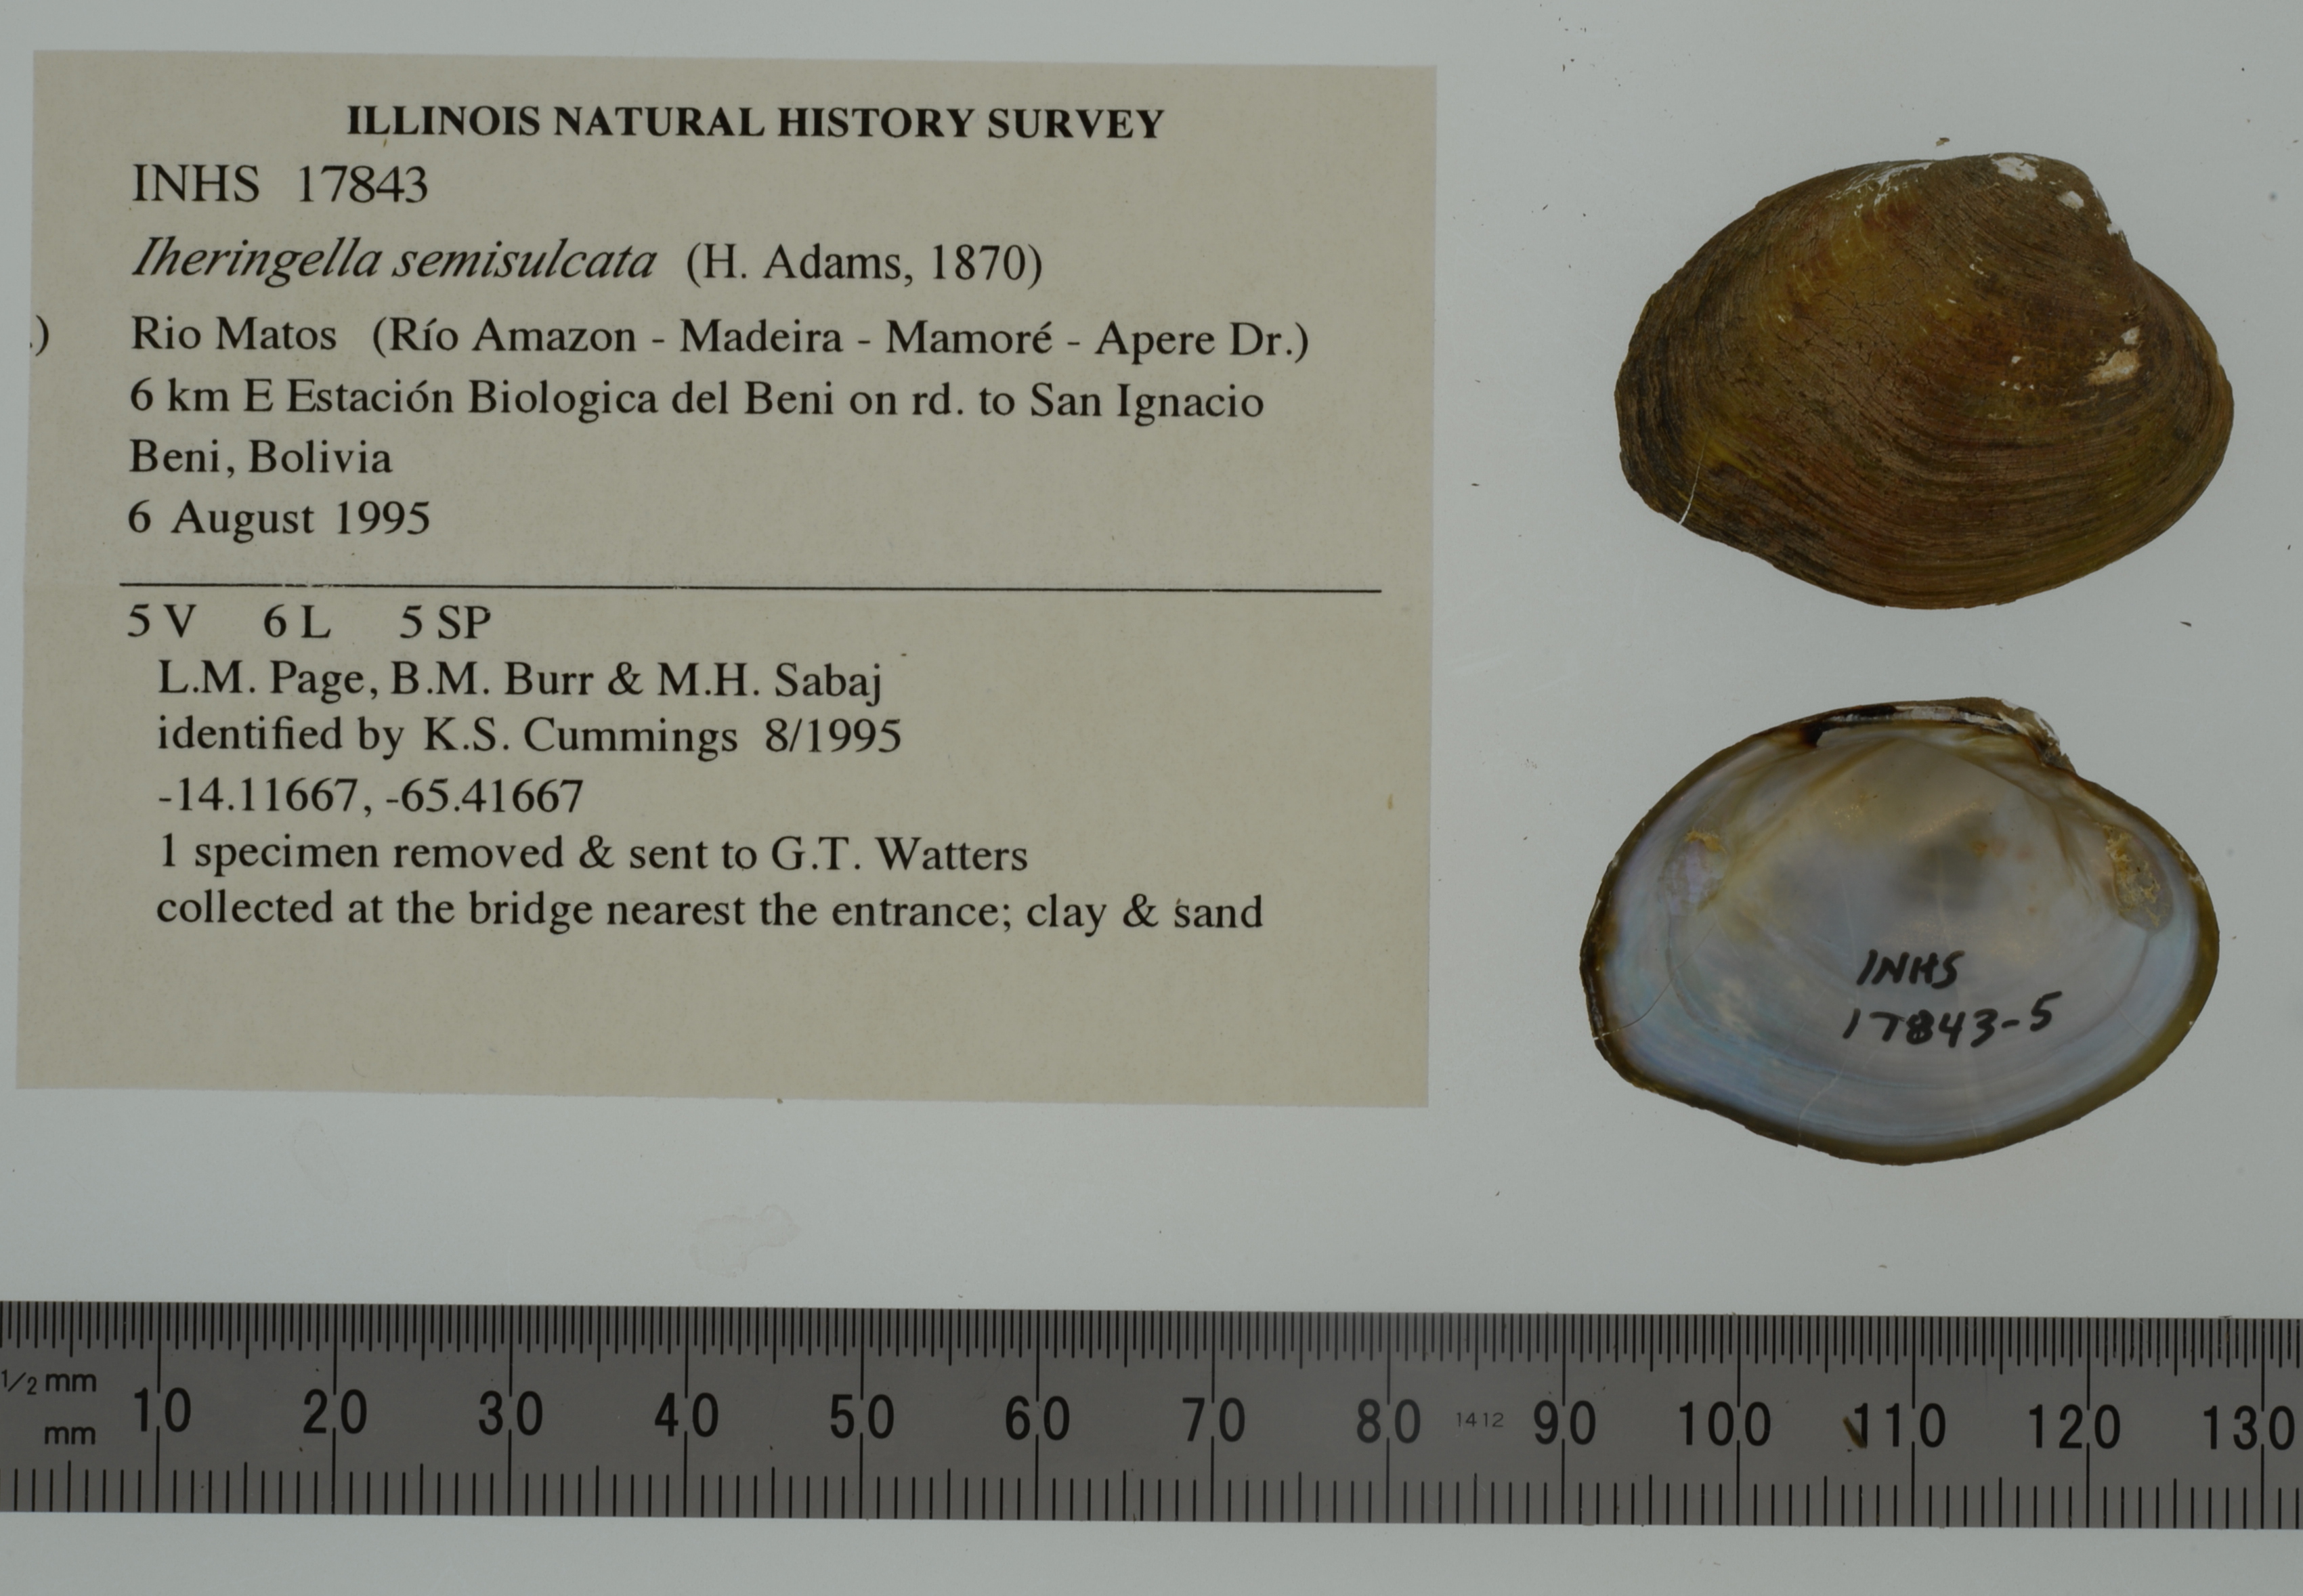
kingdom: Animalia
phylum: Mollusca
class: Bivalvia
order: Unionida
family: Mycetopodidae
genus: Monocondylaea
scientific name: Monocondylaea guarayana
